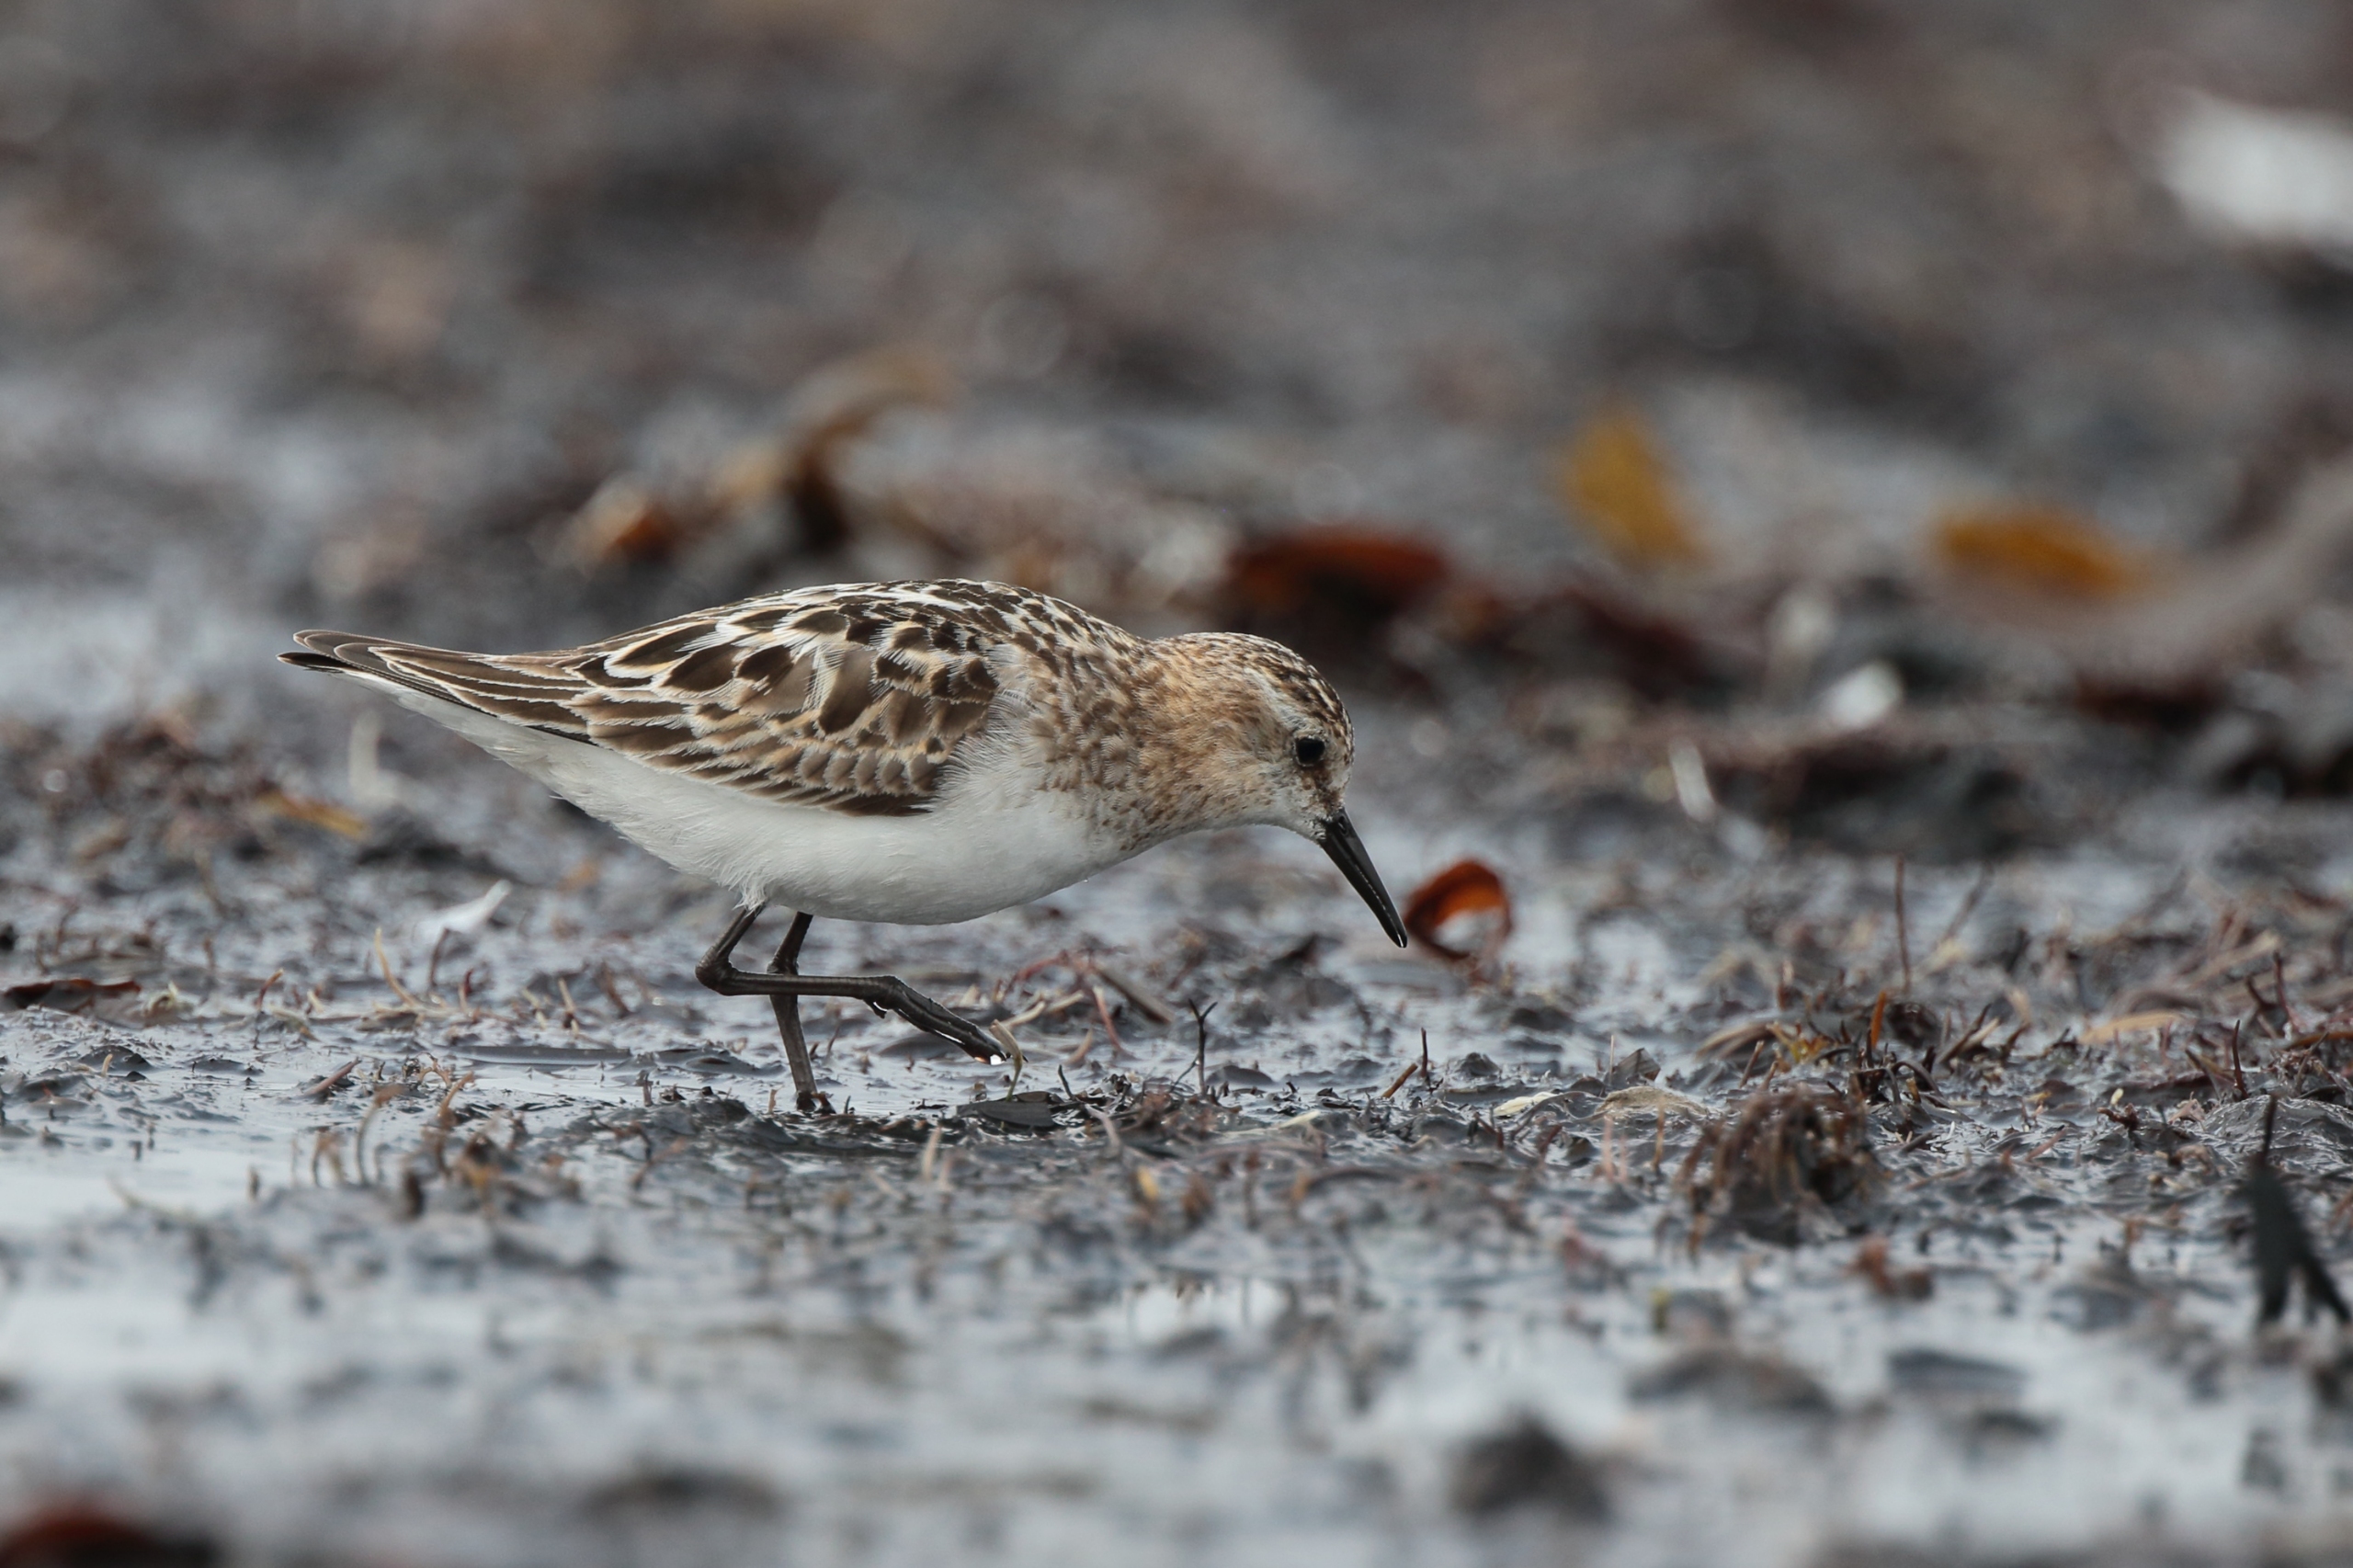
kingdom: Animalia
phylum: Chordata
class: Aves
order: Charadriiformes
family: Scolopacidae
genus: Calidris
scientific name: Calidris minuta
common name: Dværgryle
